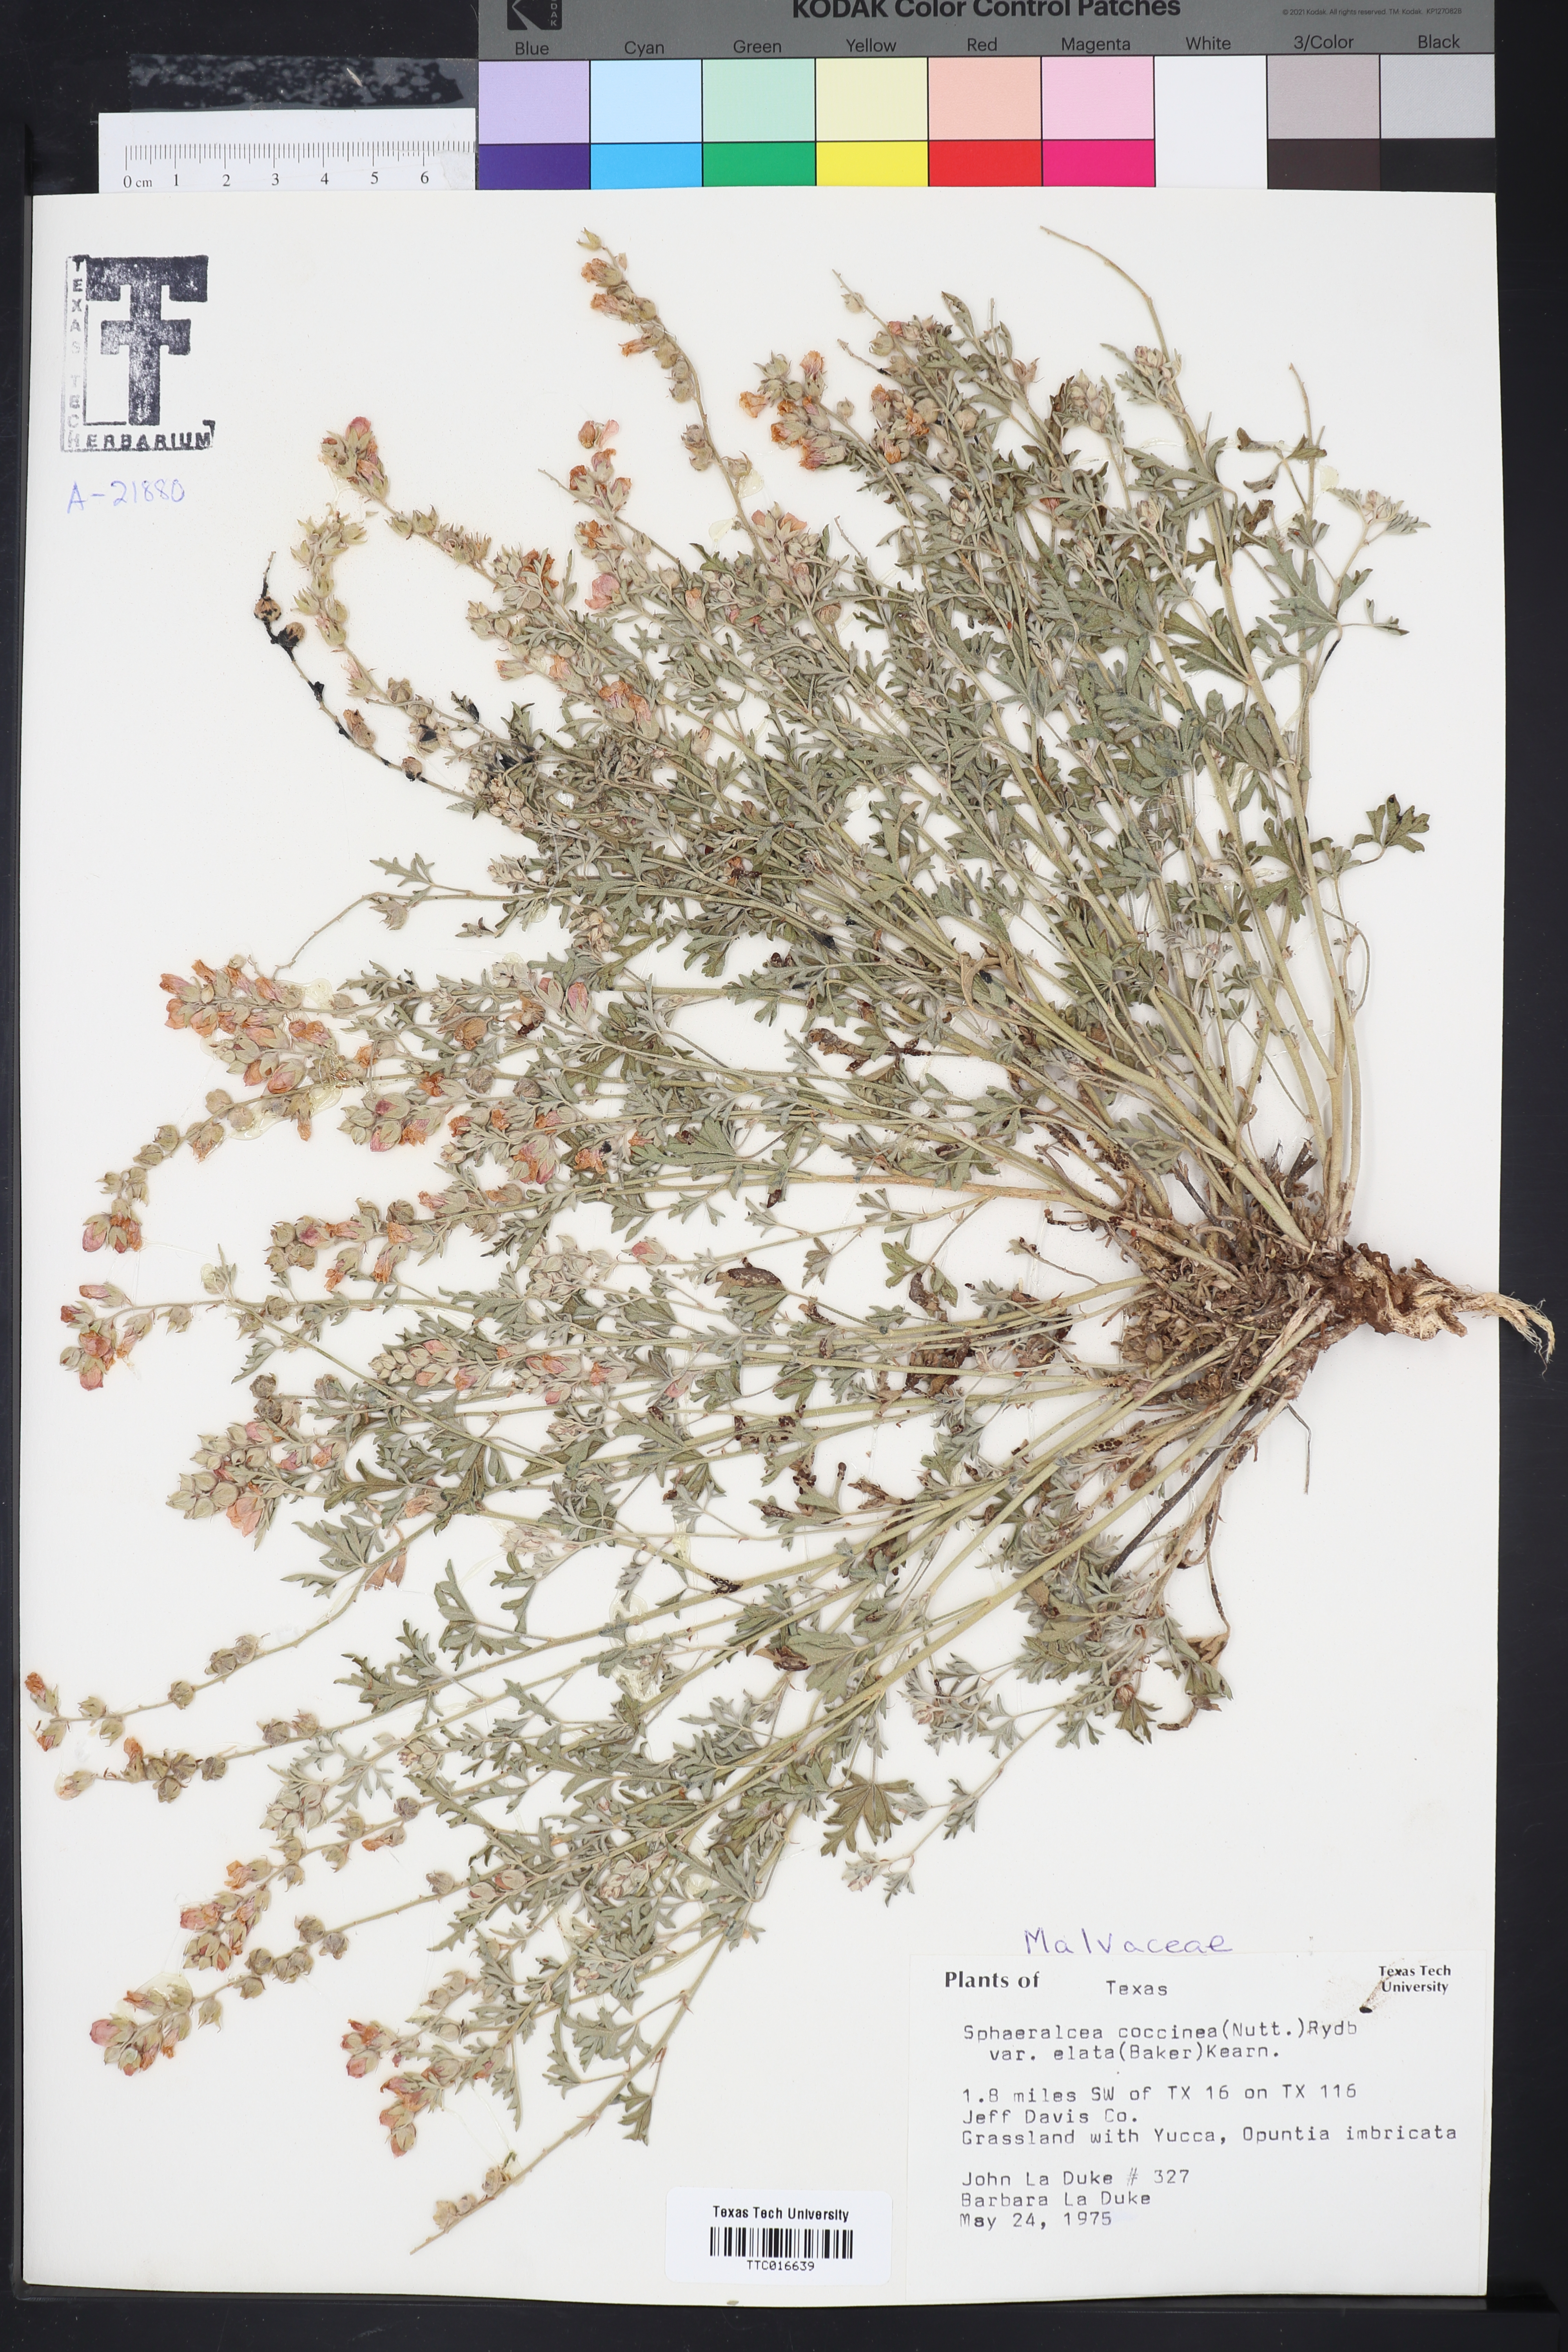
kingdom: Plantae
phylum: Tracheophyta
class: Magnoliopsida
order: Malvales
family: Malvaceae
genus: Sphaeralcea
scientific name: Sphaeralcea coccinea
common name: Moss-rose
